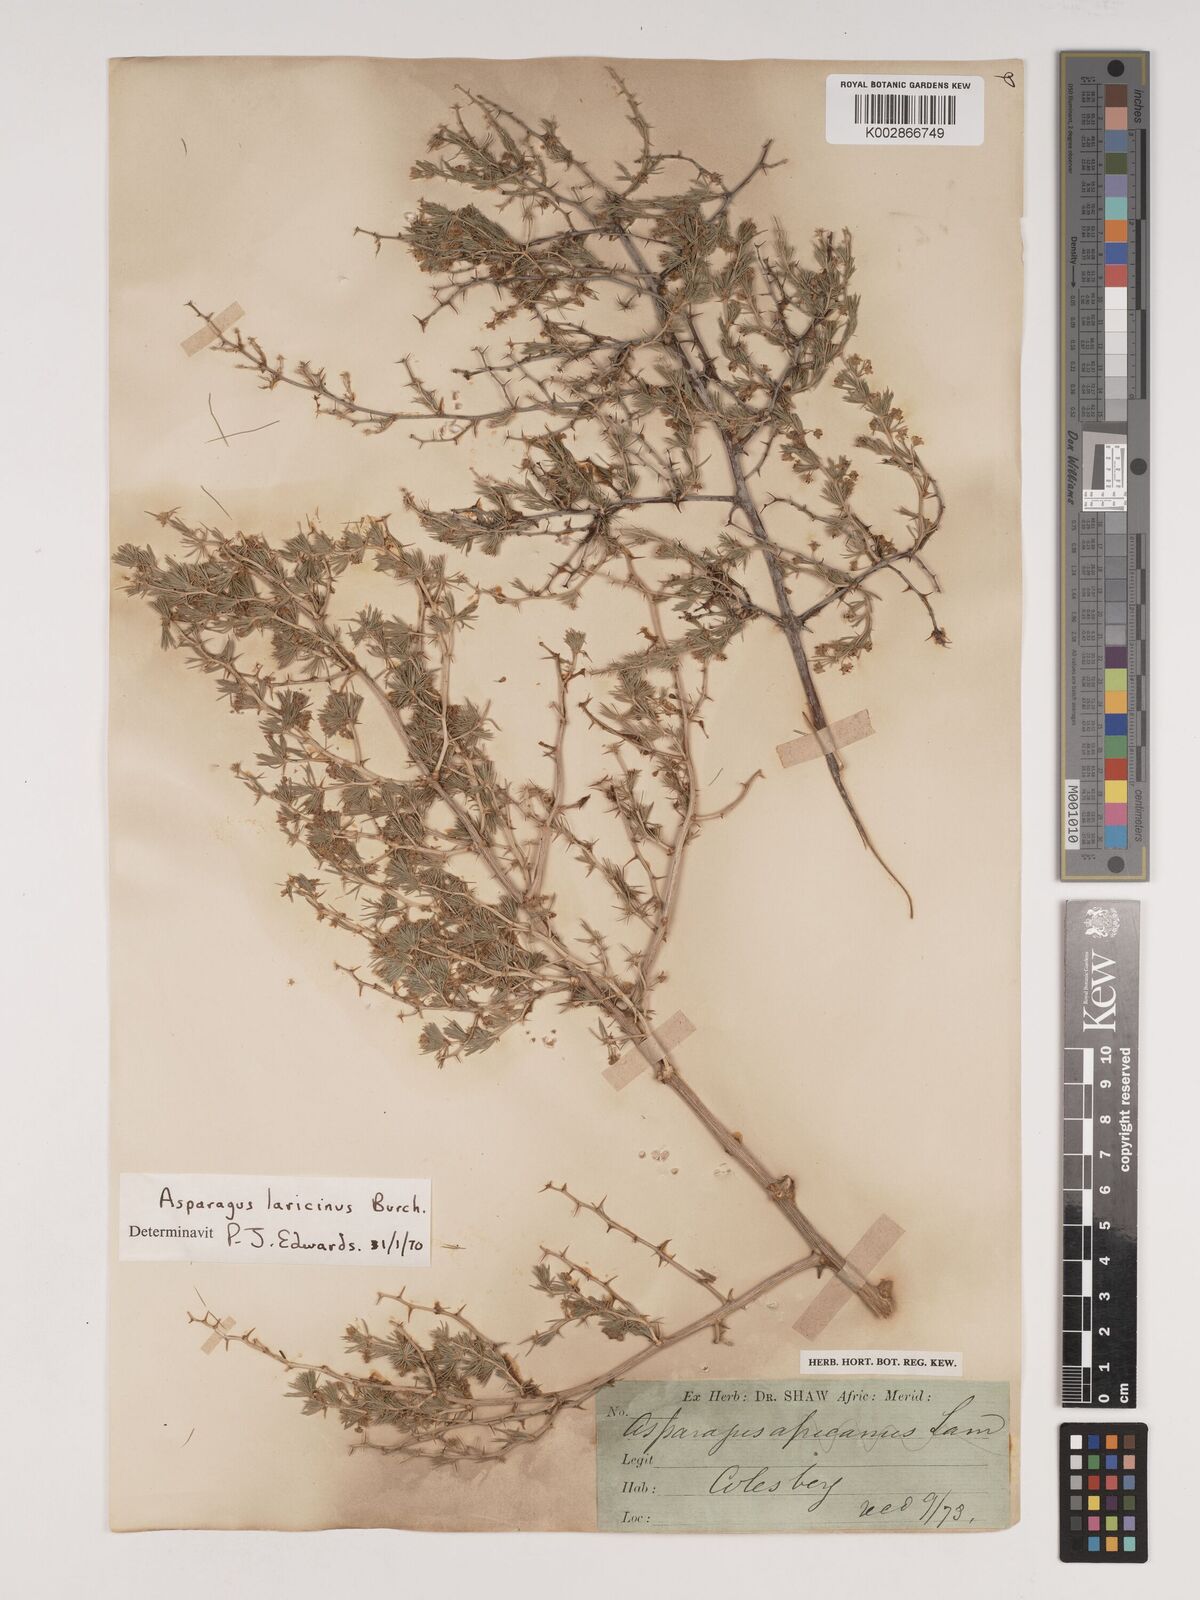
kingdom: Plantae
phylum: Tracheophyta
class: Liliopsida
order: Asparagales
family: Asparagaceae
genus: Asparagus
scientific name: Asparagus laricinus
